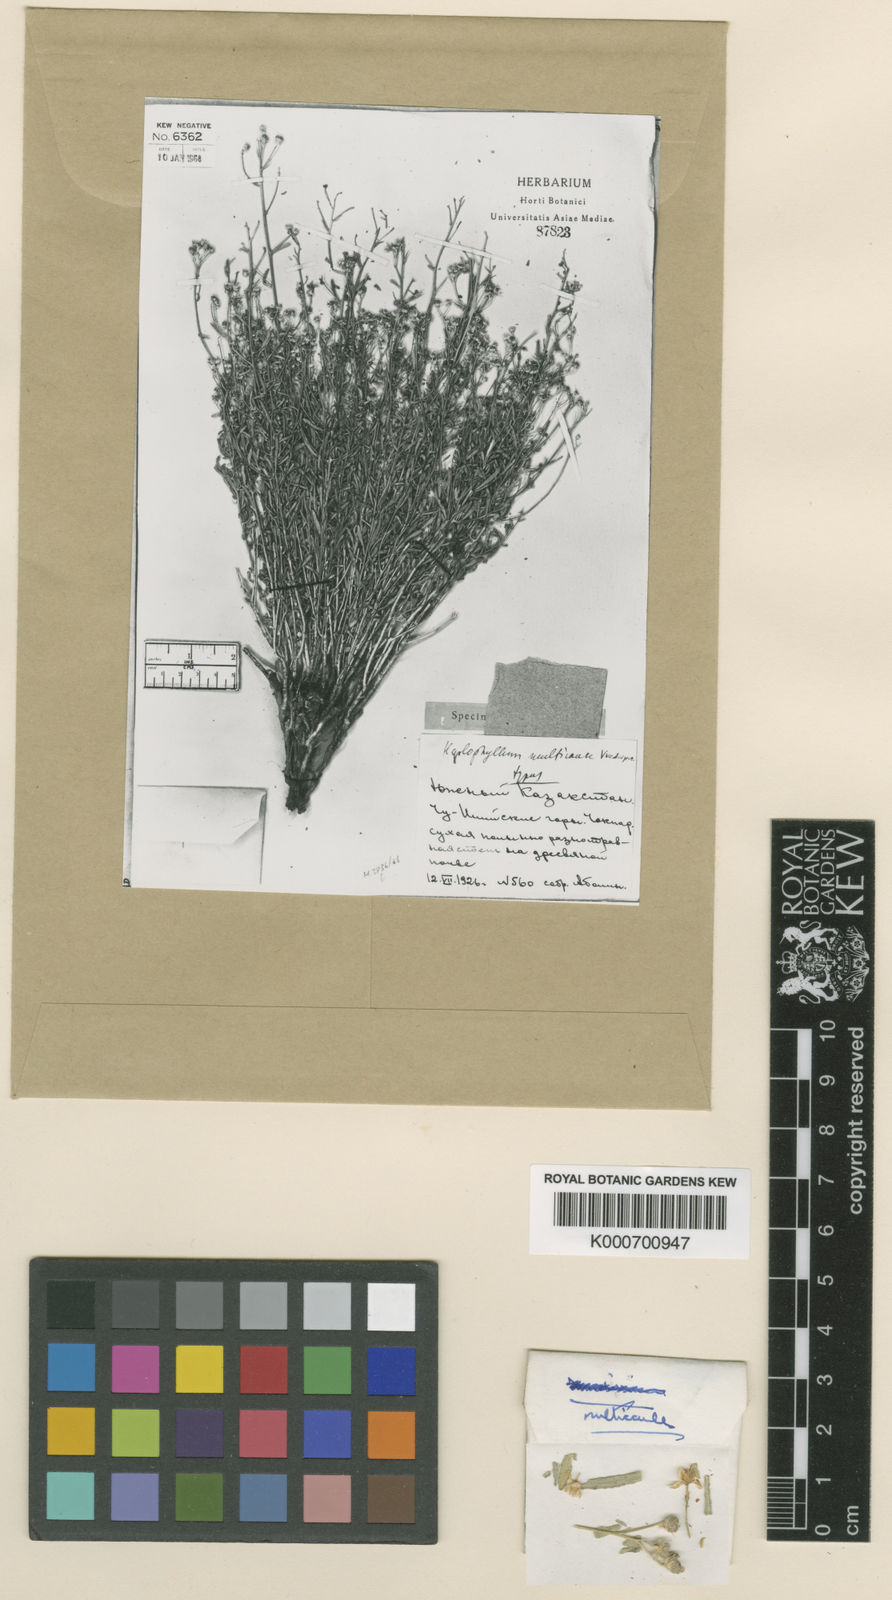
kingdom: Plantae
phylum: Tracheophyta
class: Magnoliopsida
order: Sapindales
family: Rutaceae
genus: Haplophyllum
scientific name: Haplophyllum multicaule
